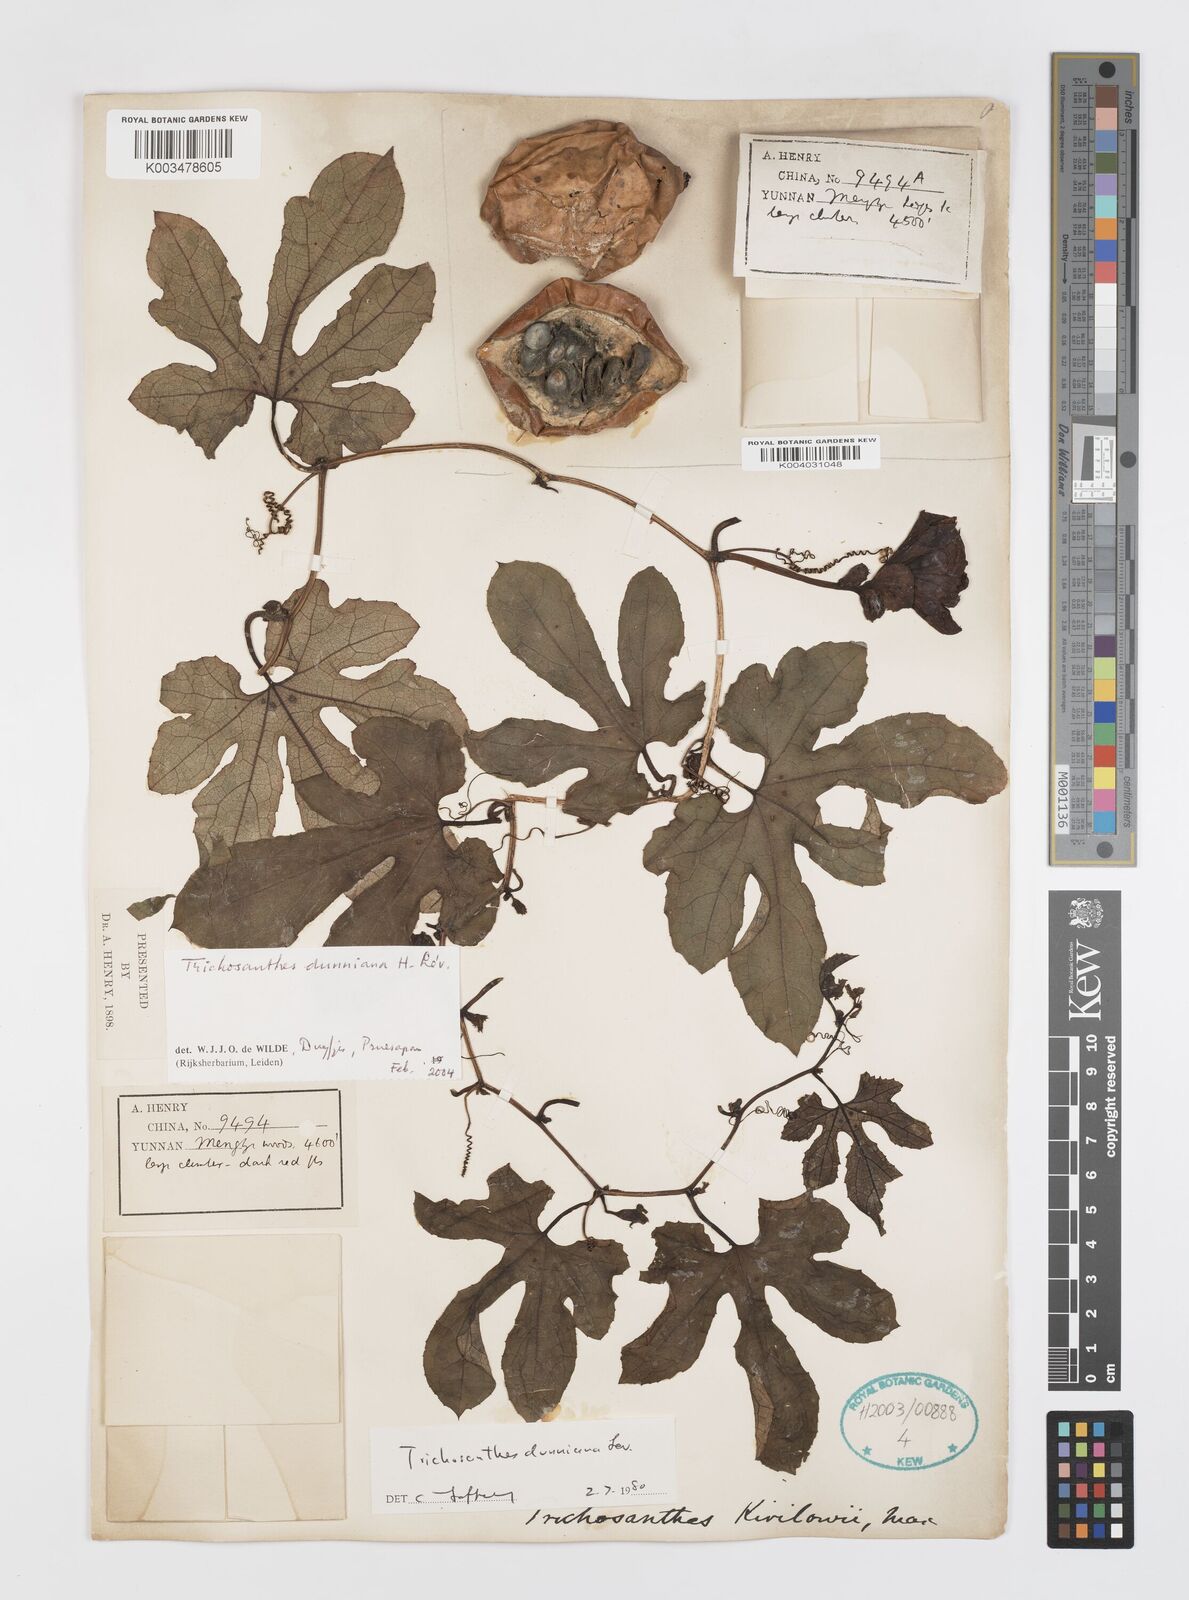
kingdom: Plantae
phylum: Tracheophyta
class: Magnoliopsida
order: Cucurbitales
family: Cucurbitaceae
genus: Trichosanthes
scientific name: Trichosanthes dunniana
